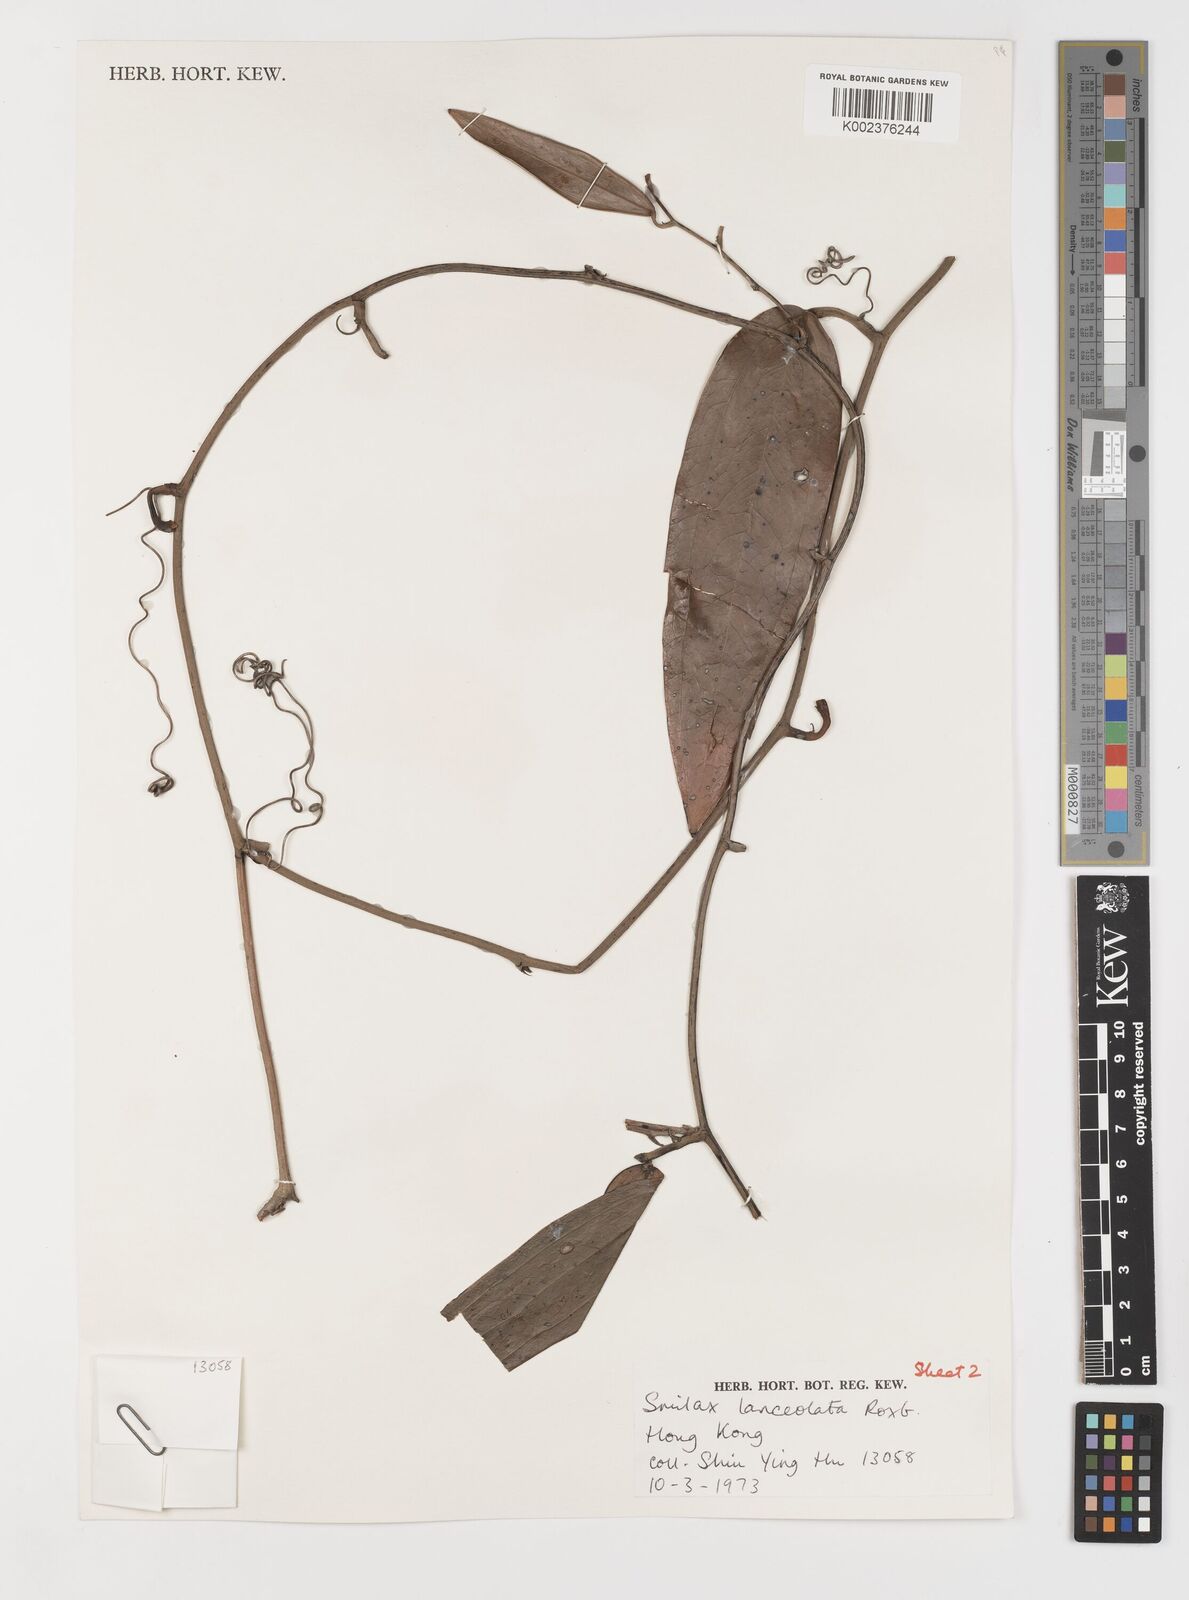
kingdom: Plantae
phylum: Tracheophyta
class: Liliopsida
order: Liliales
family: Smilacaceae
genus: Smilax
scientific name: Smilax
